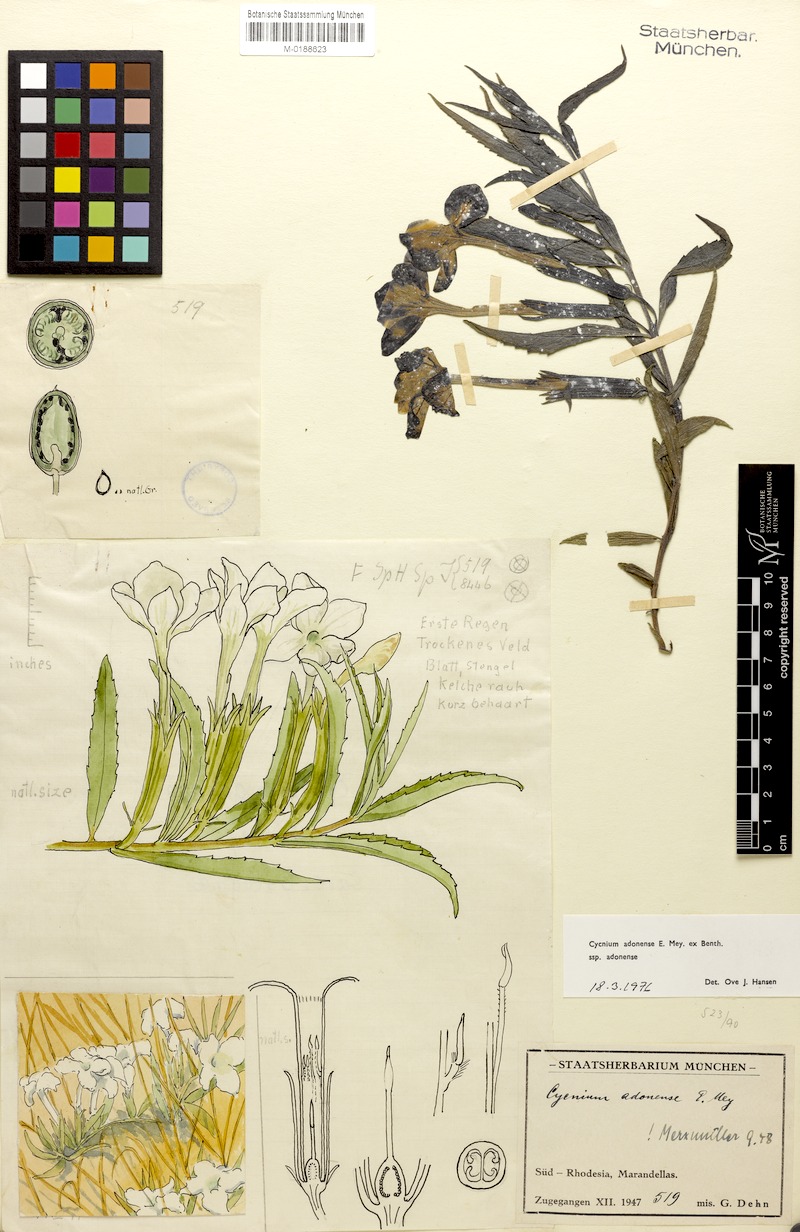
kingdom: Plantae
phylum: Tracheophyta
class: Magnoliopsida
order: Lamiales
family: Orobanchaceae
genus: Cycnium
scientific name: Cycnium adonense
